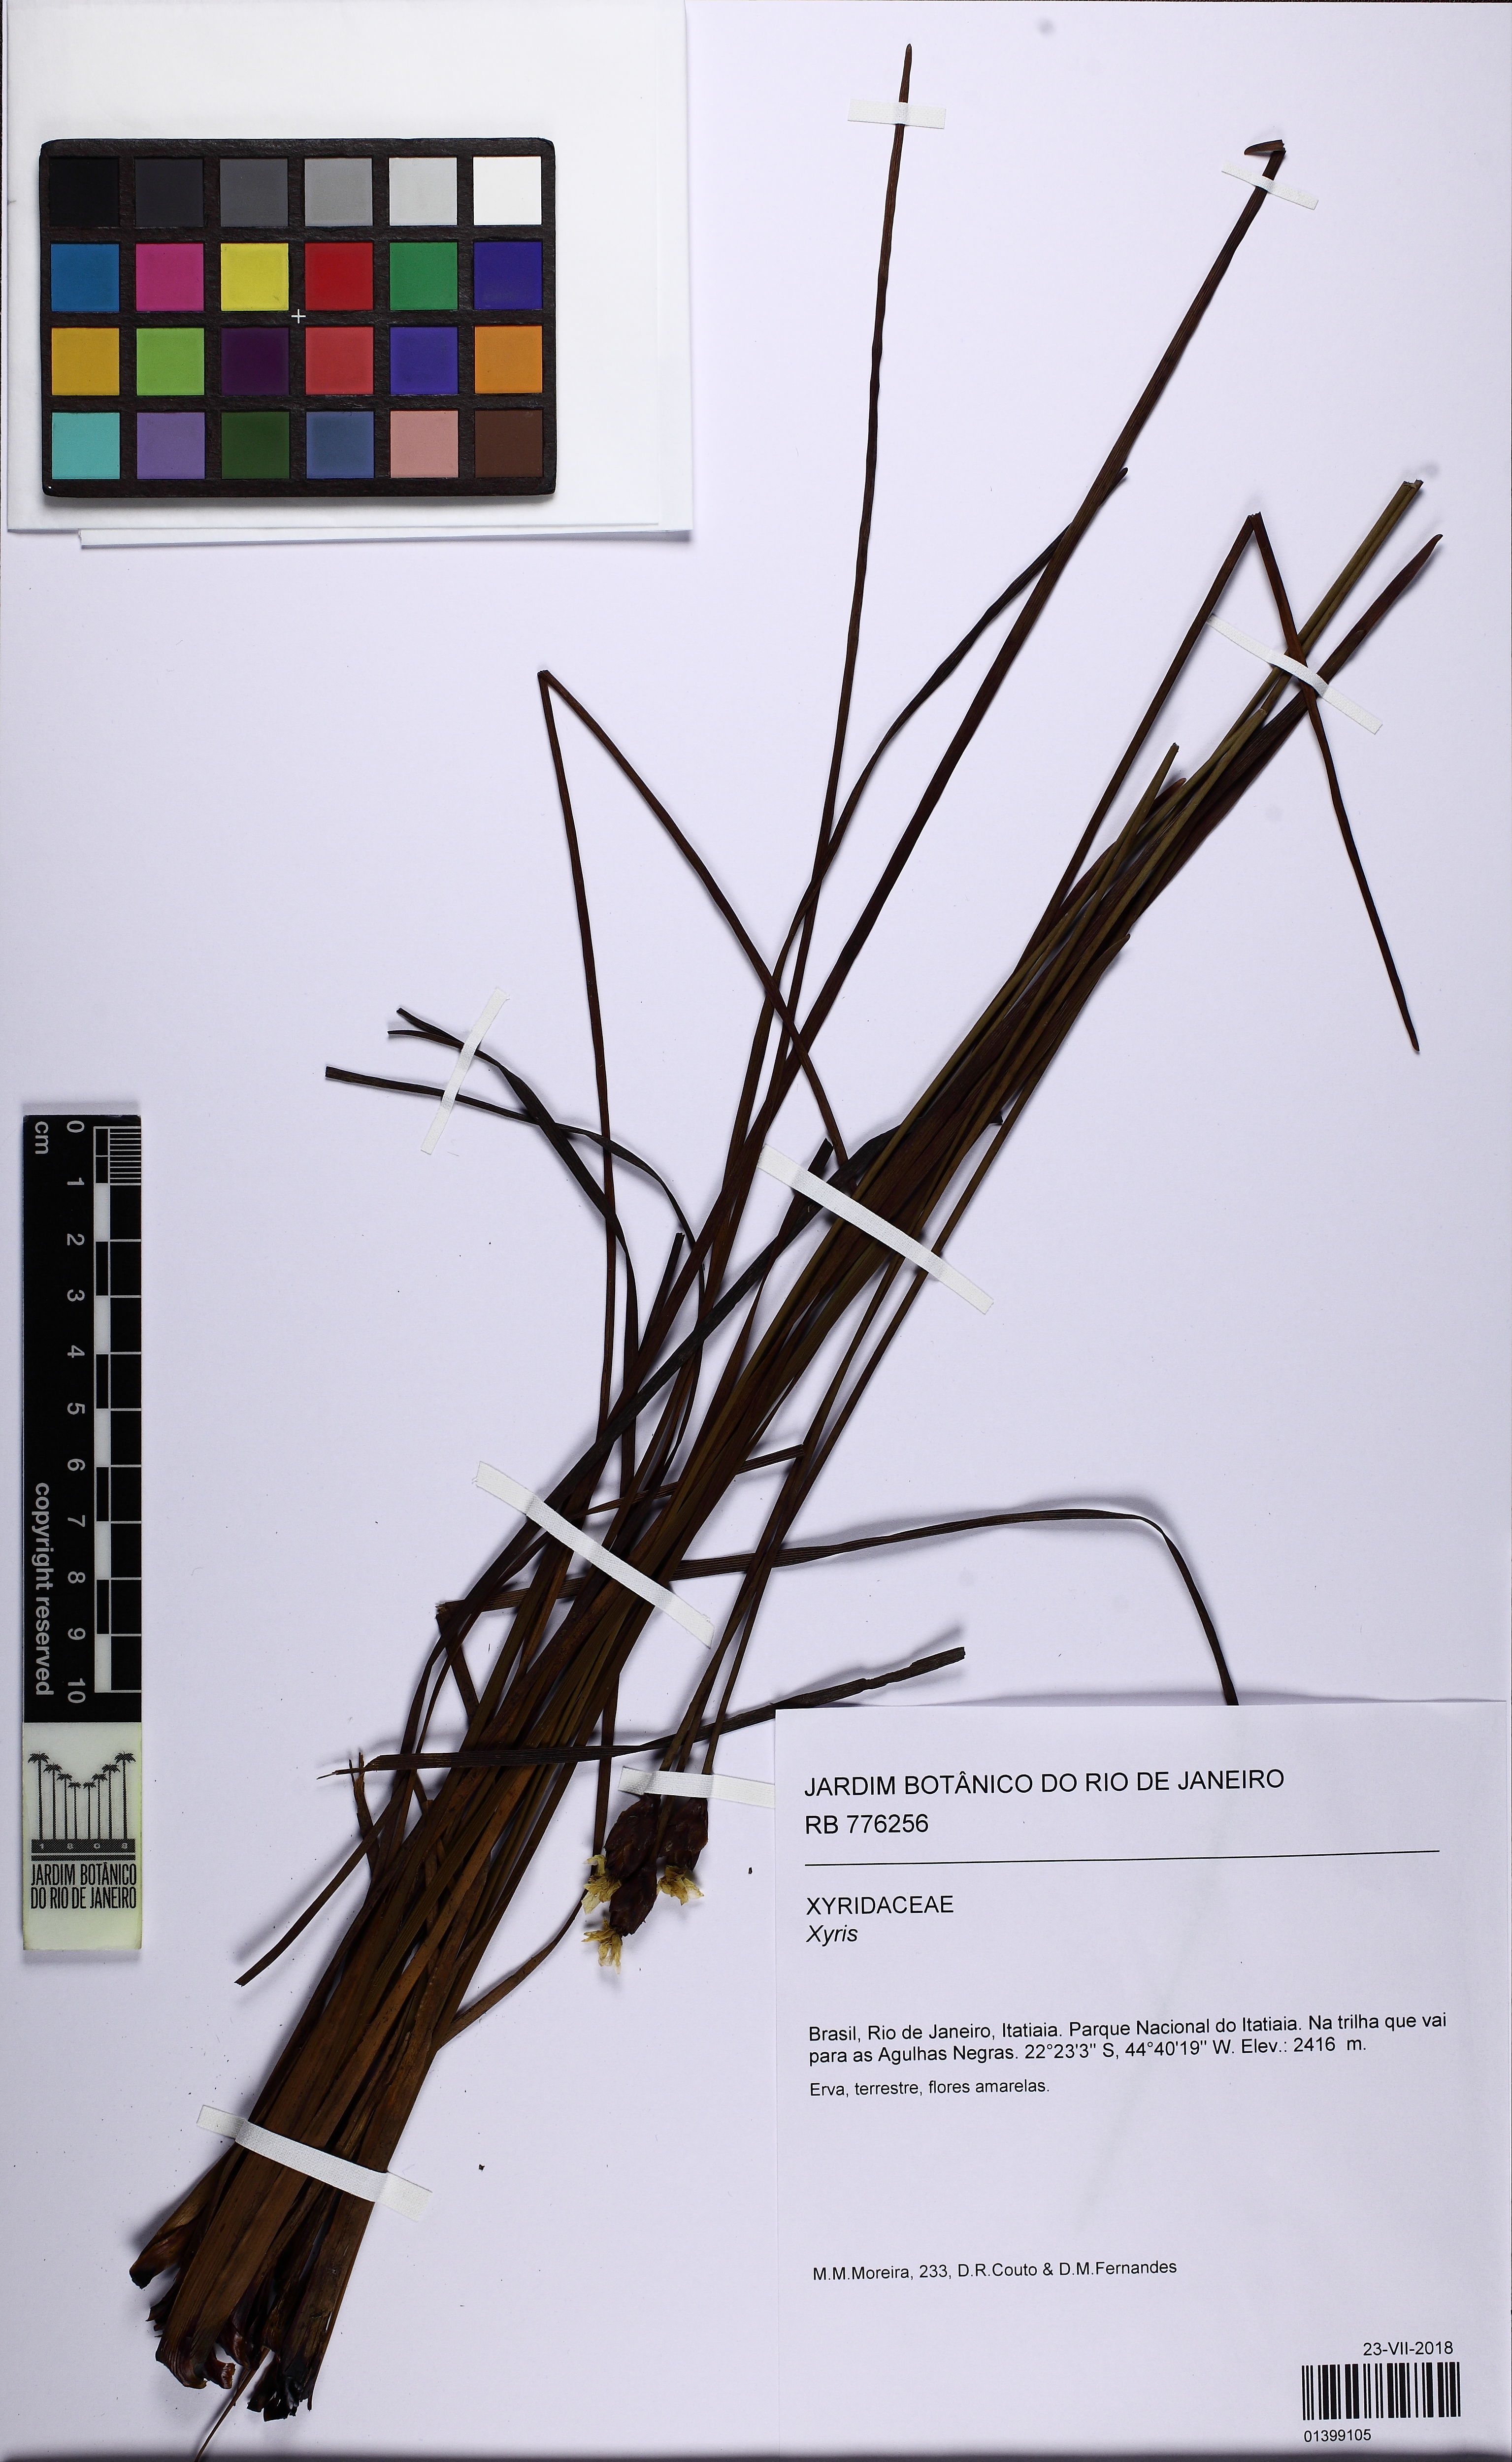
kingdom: Plantae
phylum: Tracheophyta
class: Liliopsida
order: Poales
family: Xyridaceae
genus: Xyris
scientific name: Xyris
